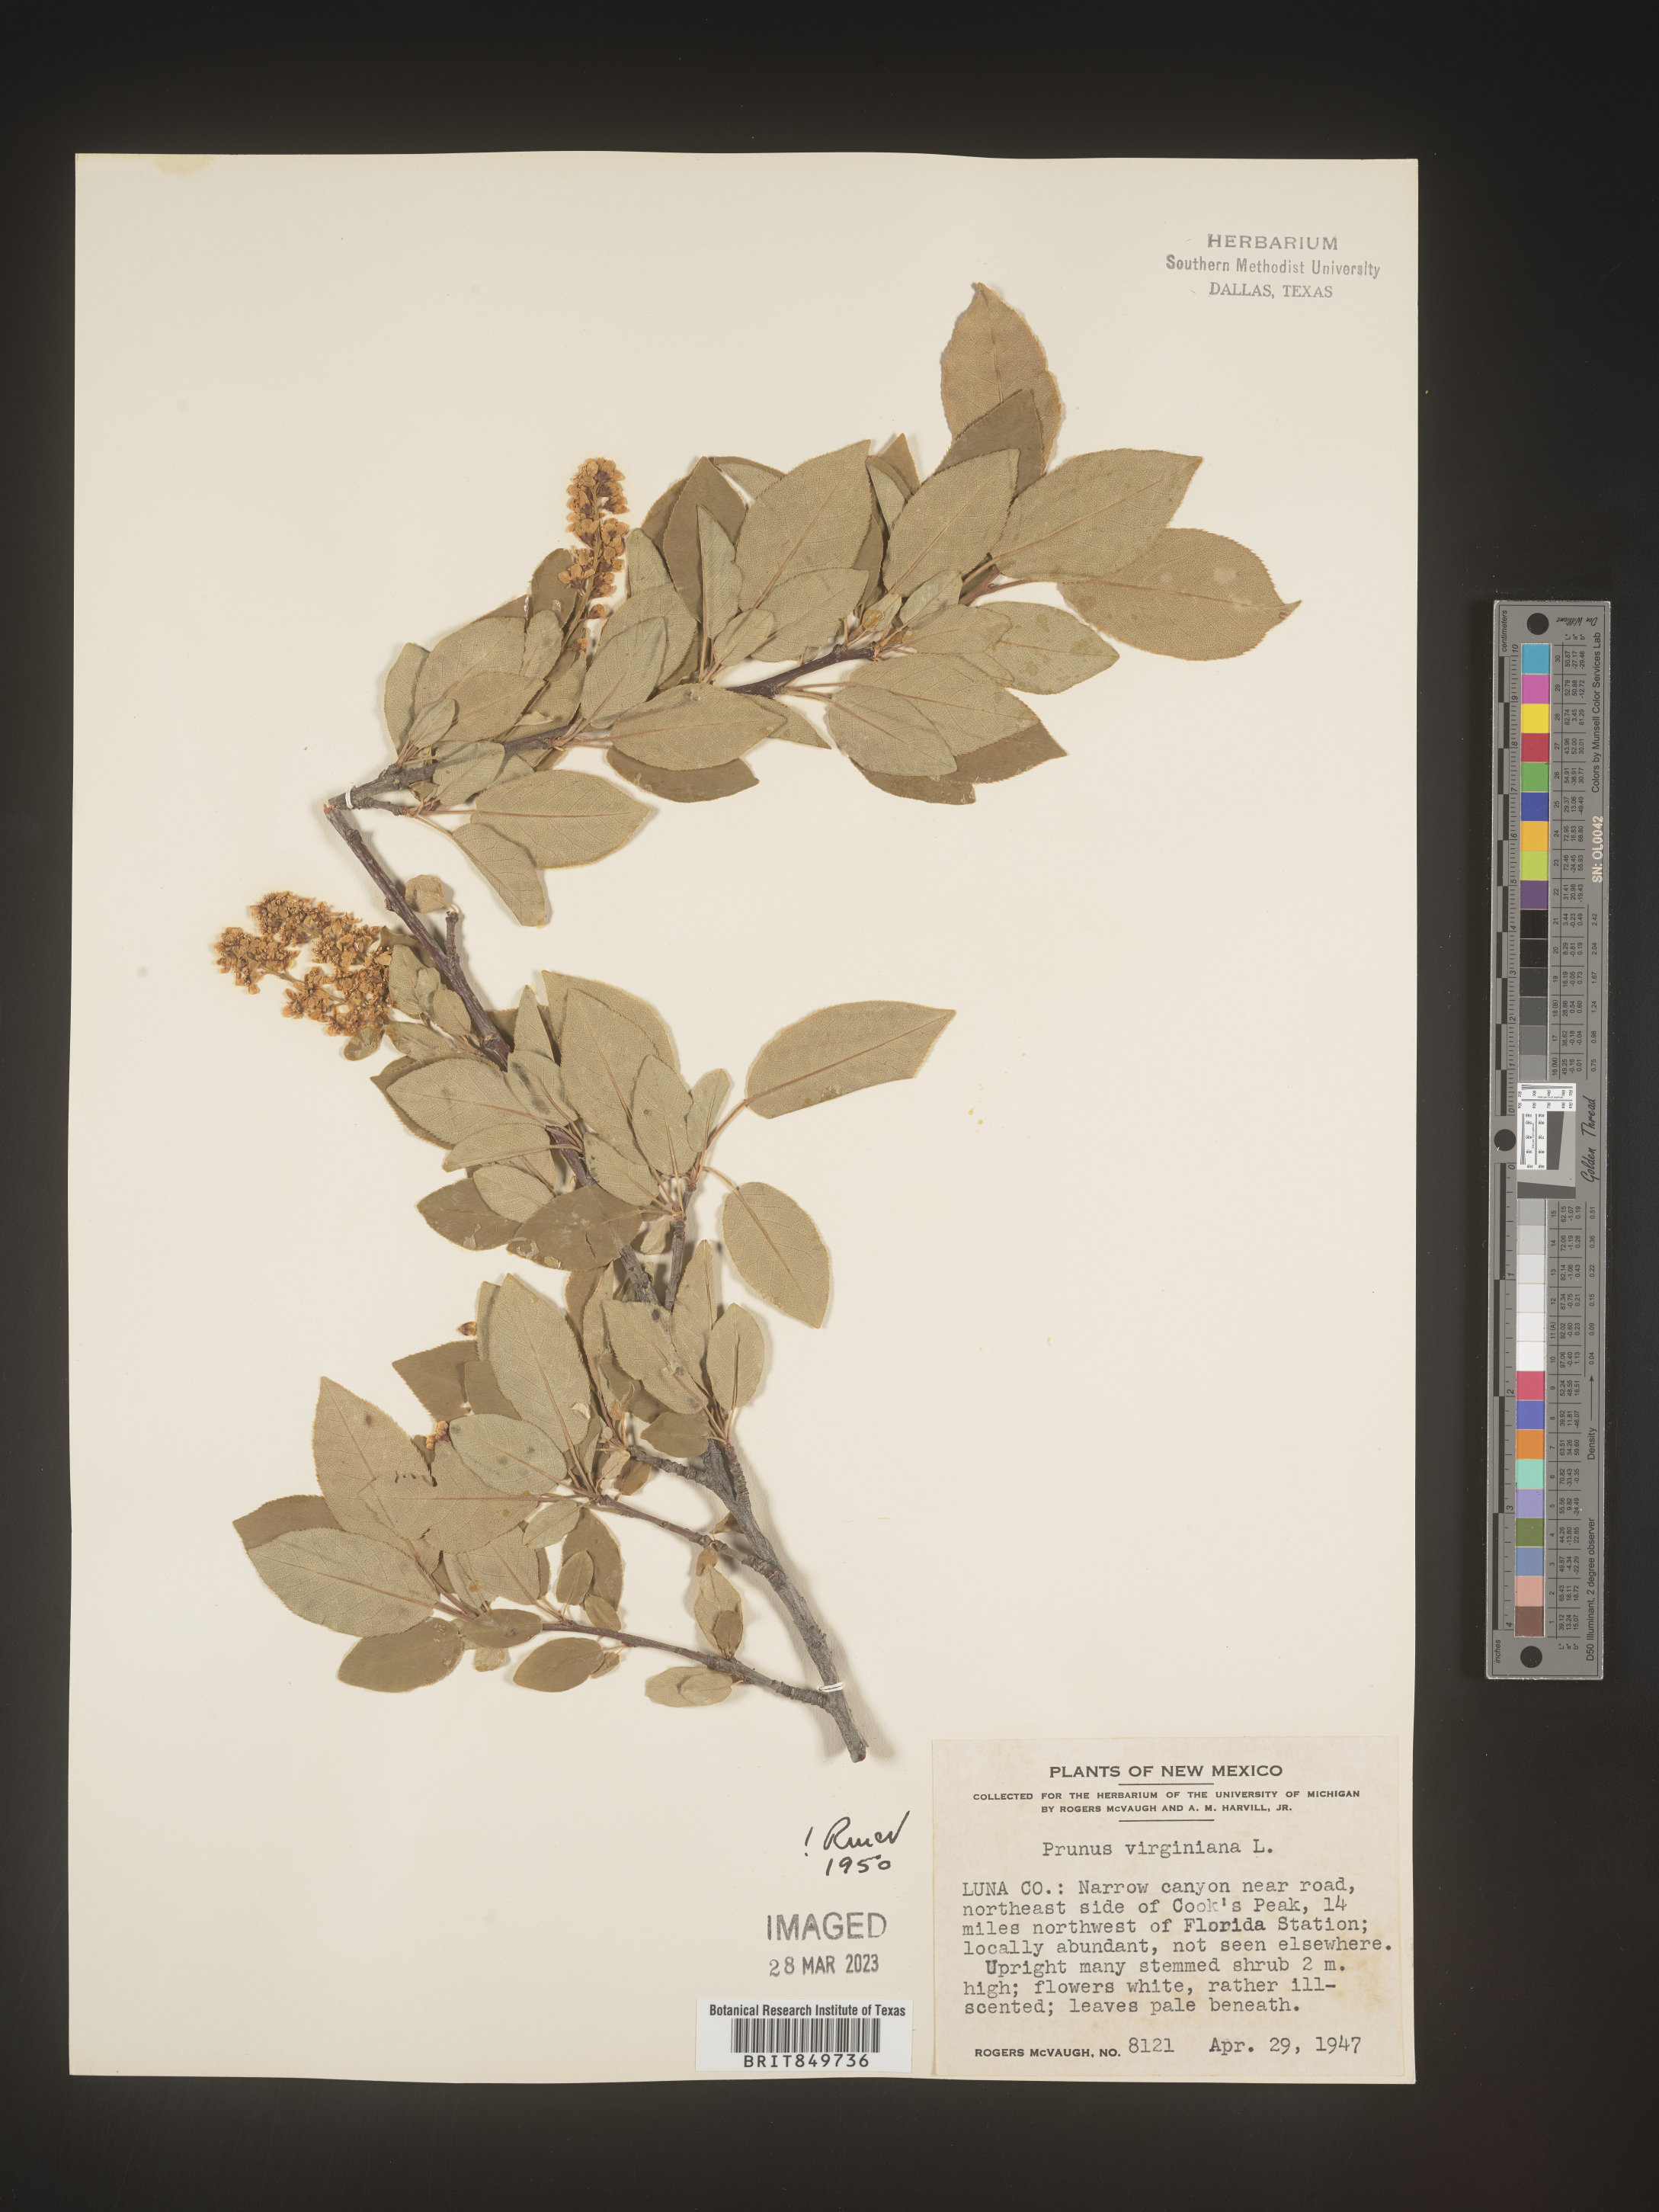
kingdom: Plantae
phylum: Tracheophyta
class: Magnoliopsida
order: Rosales
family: Rosaceae
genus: Prunus
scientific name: Prunus virginiana
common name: Chokecherry
